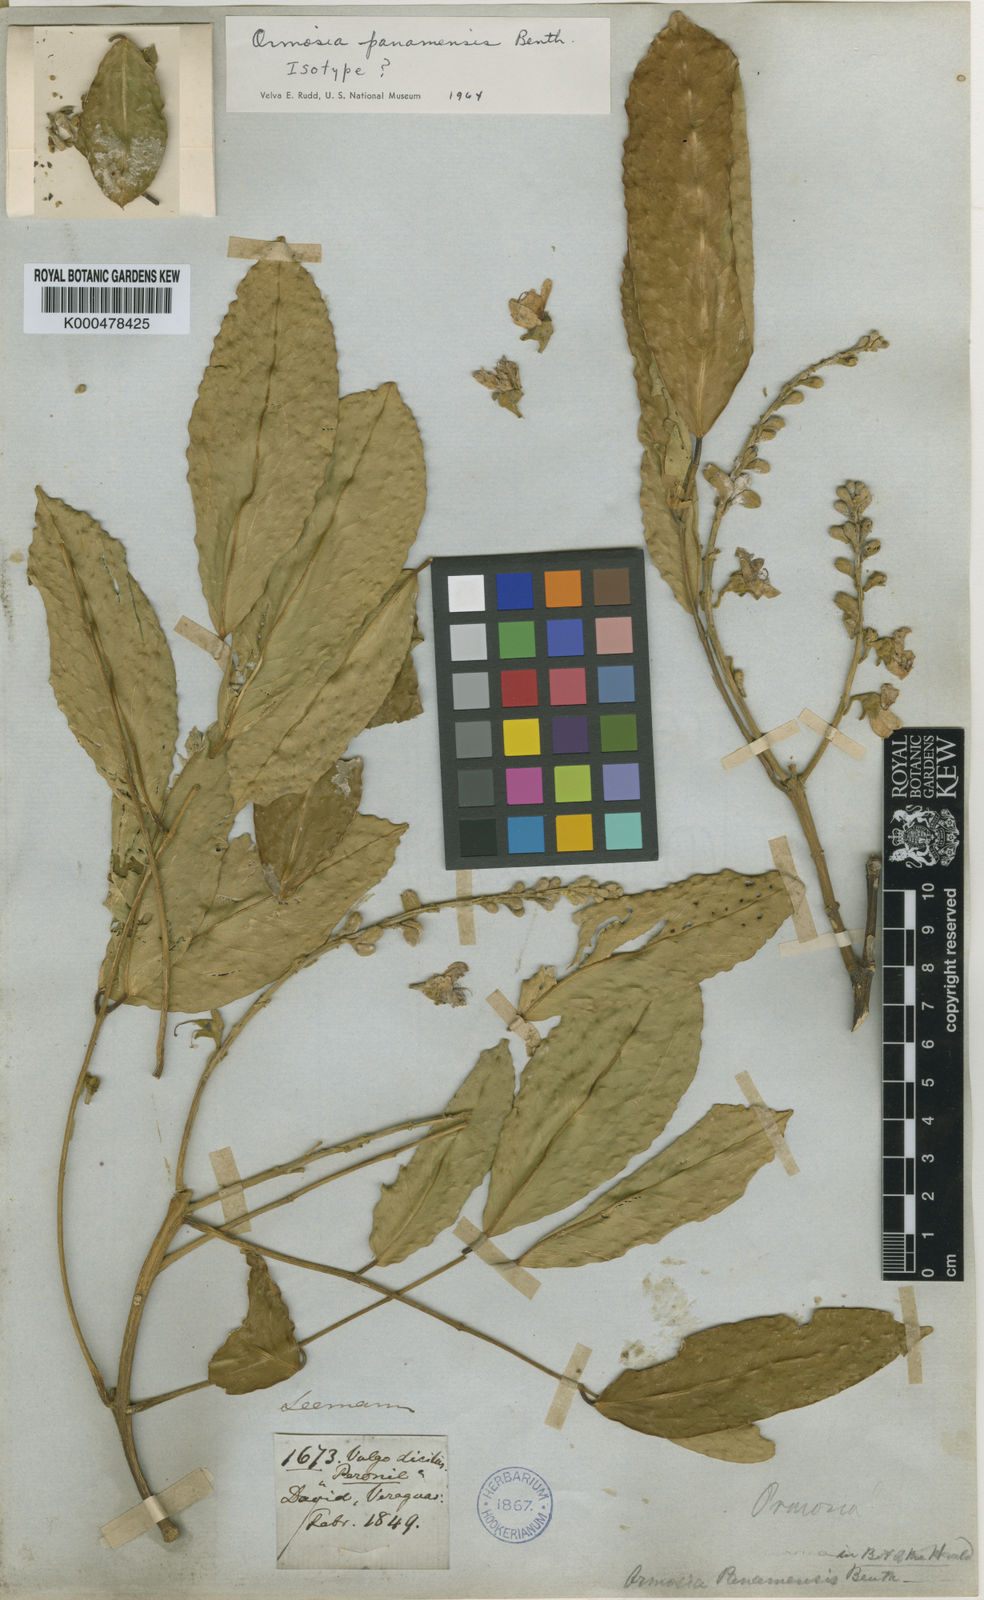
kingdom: Plantae
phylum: Tracheophyta
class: Magnoliopsida
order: Fabales
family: Fabaceae
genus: Ormosia
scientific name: Ormosia
